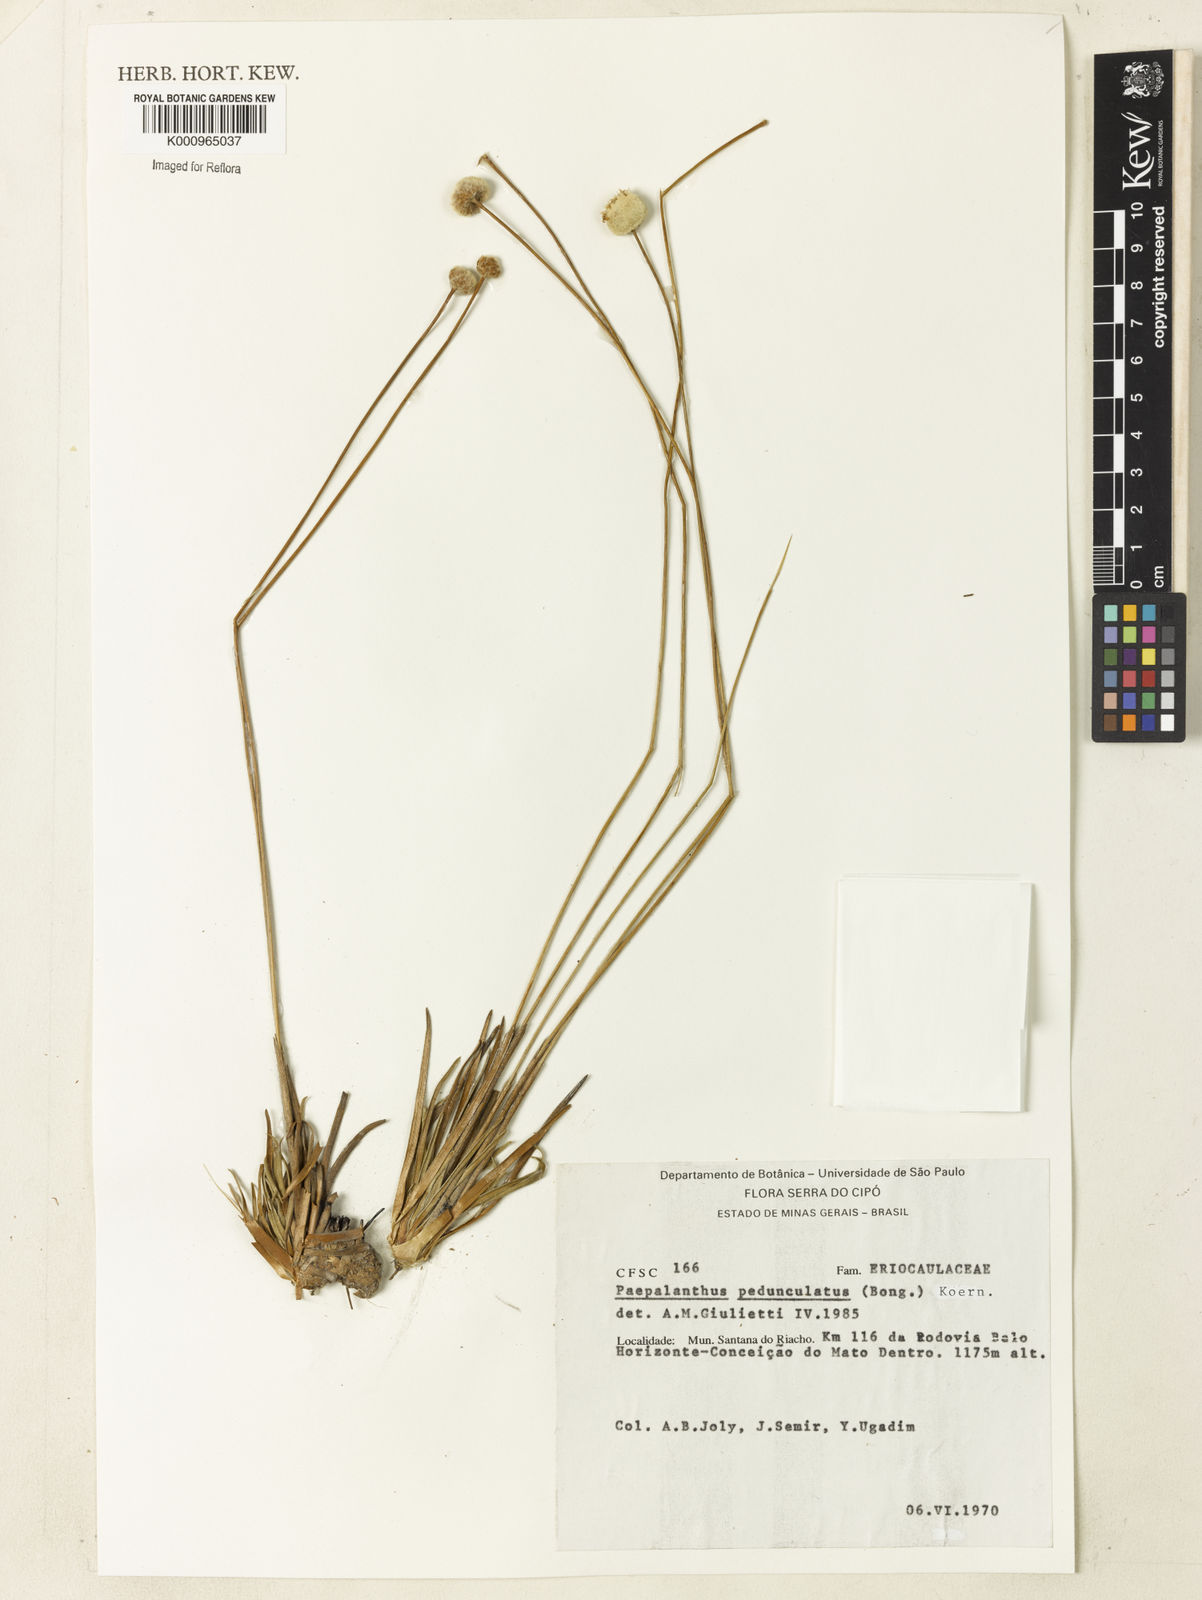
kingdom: Plantae
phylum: Tracheophyta
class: Liliopsida
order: Poales
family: Eriocaulaceae
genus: Paepalanthus
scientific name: Paepalanthus
